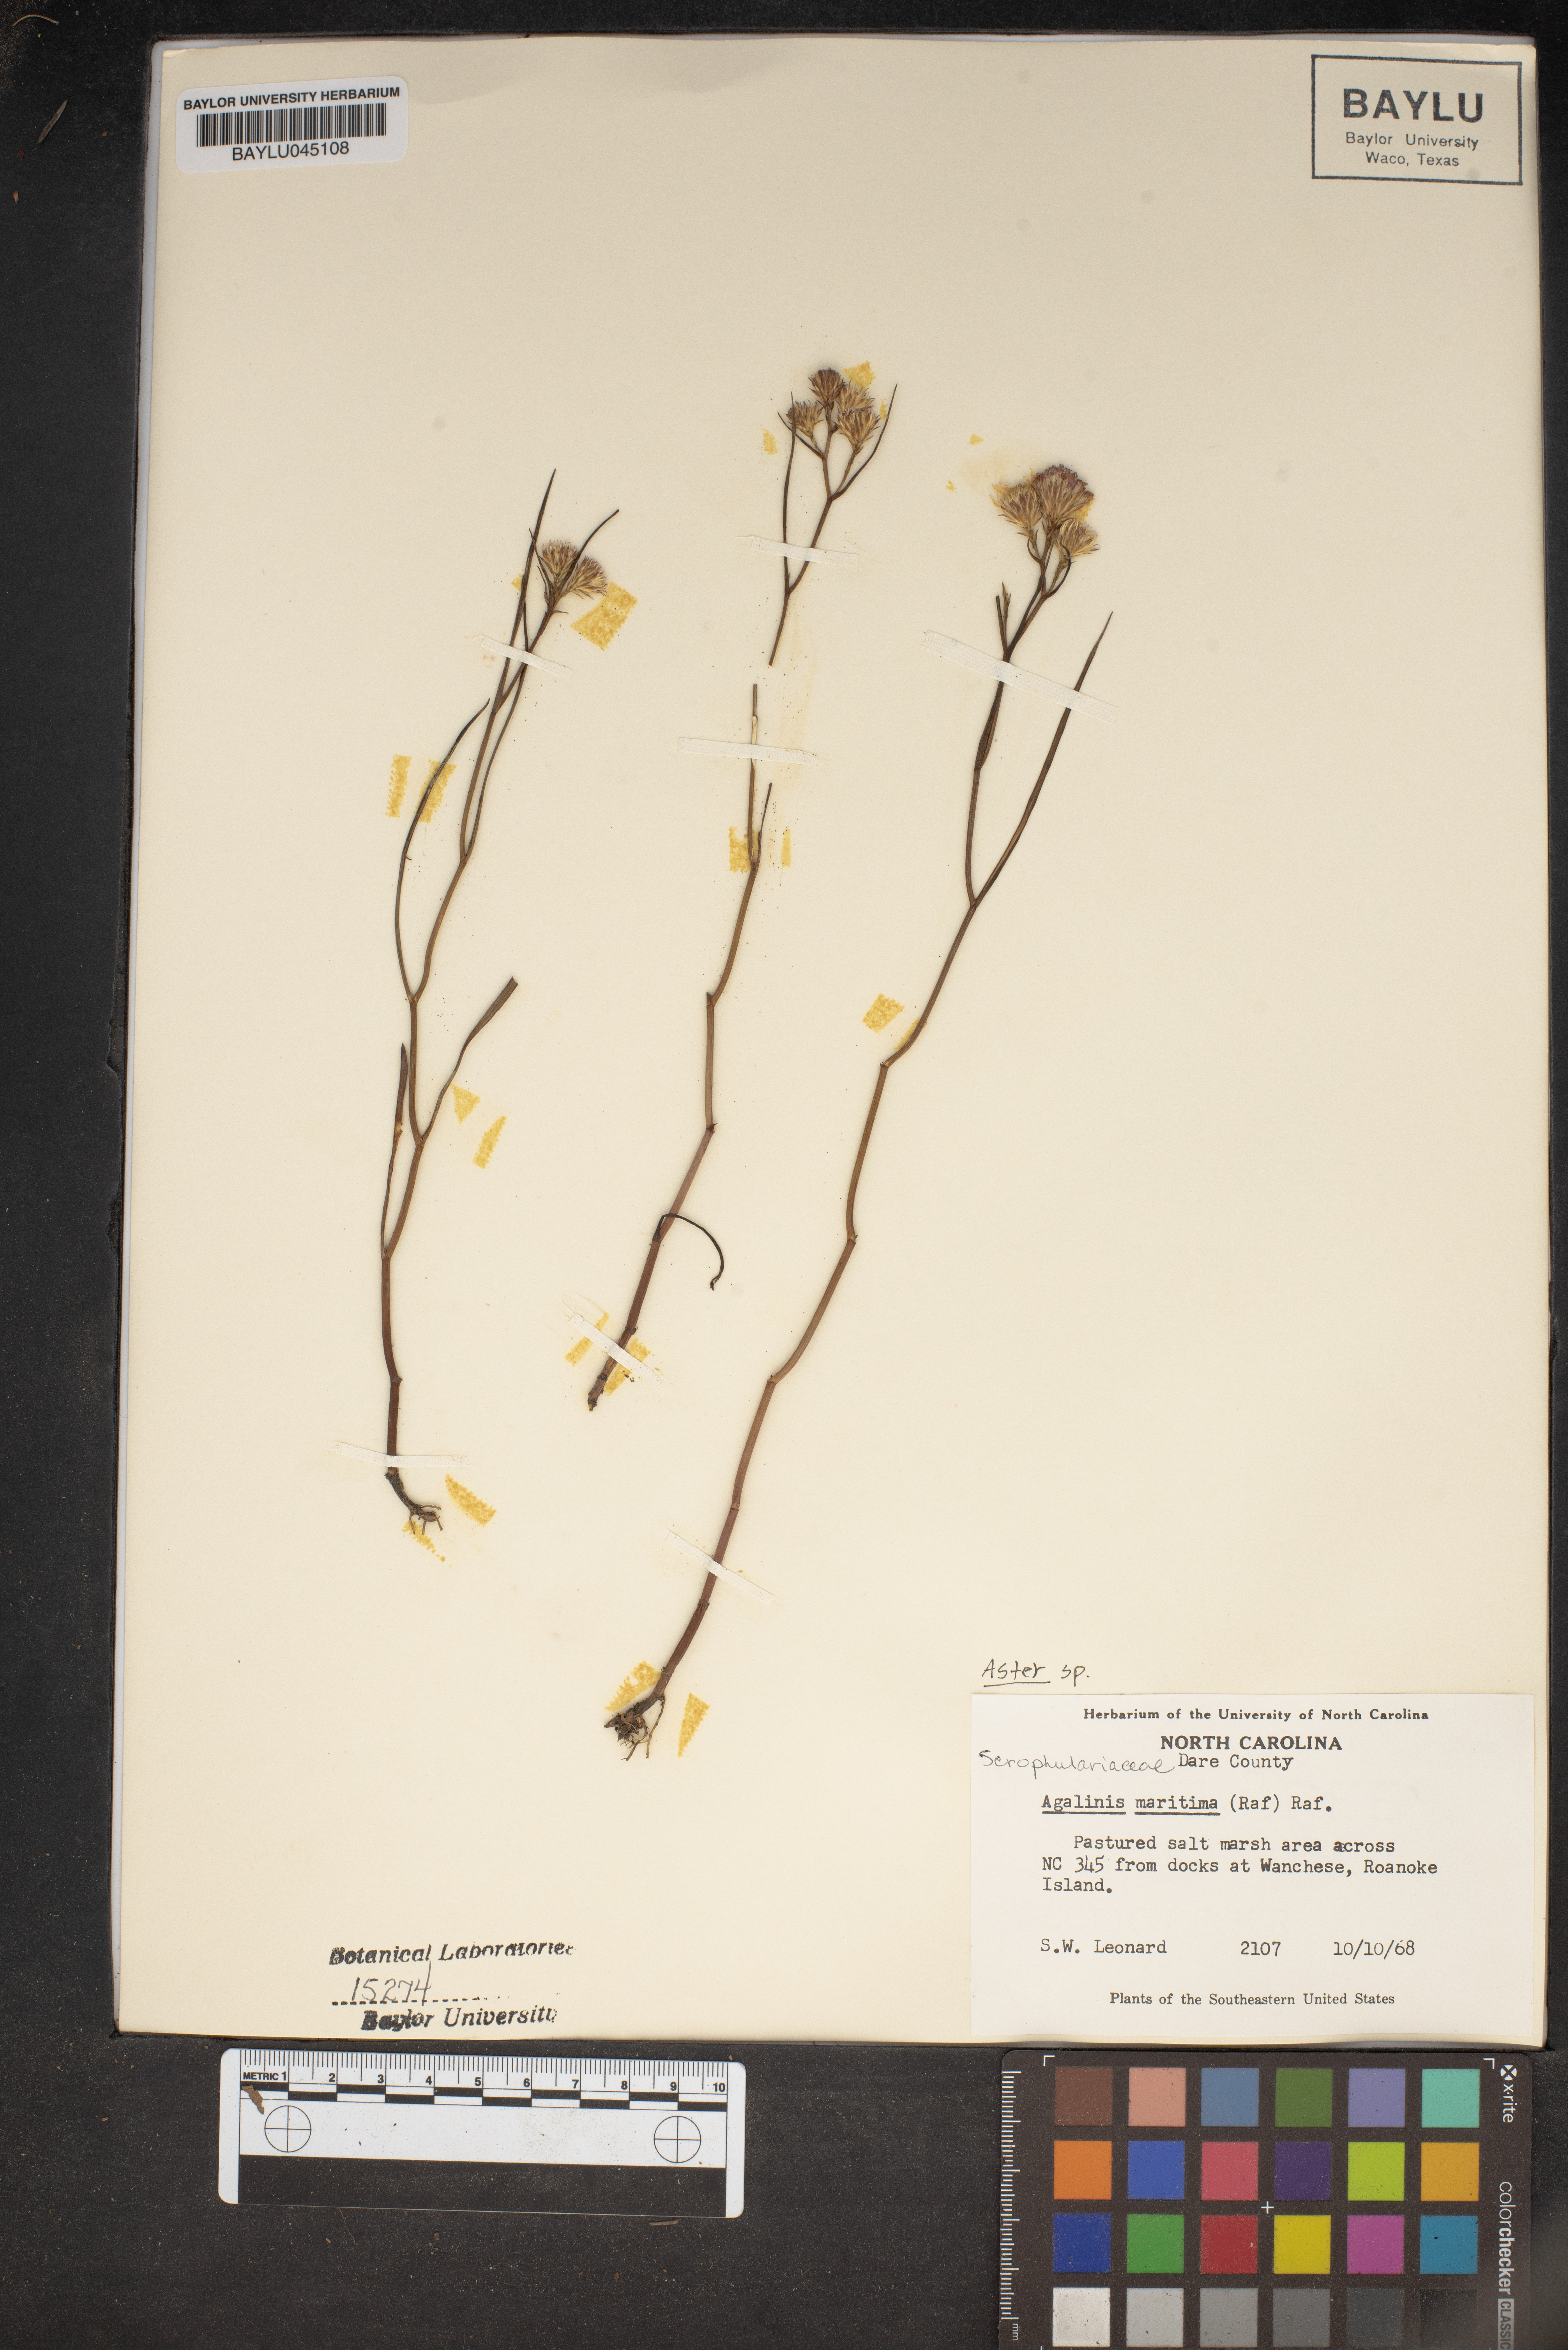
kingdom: Plantae
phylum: Tracheophyta
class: Magnoliopsida
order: Lamiales
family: Orobanchaceae
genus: Agalinis
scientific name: Agalinis maritima
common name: Saltmarsh agalinis
